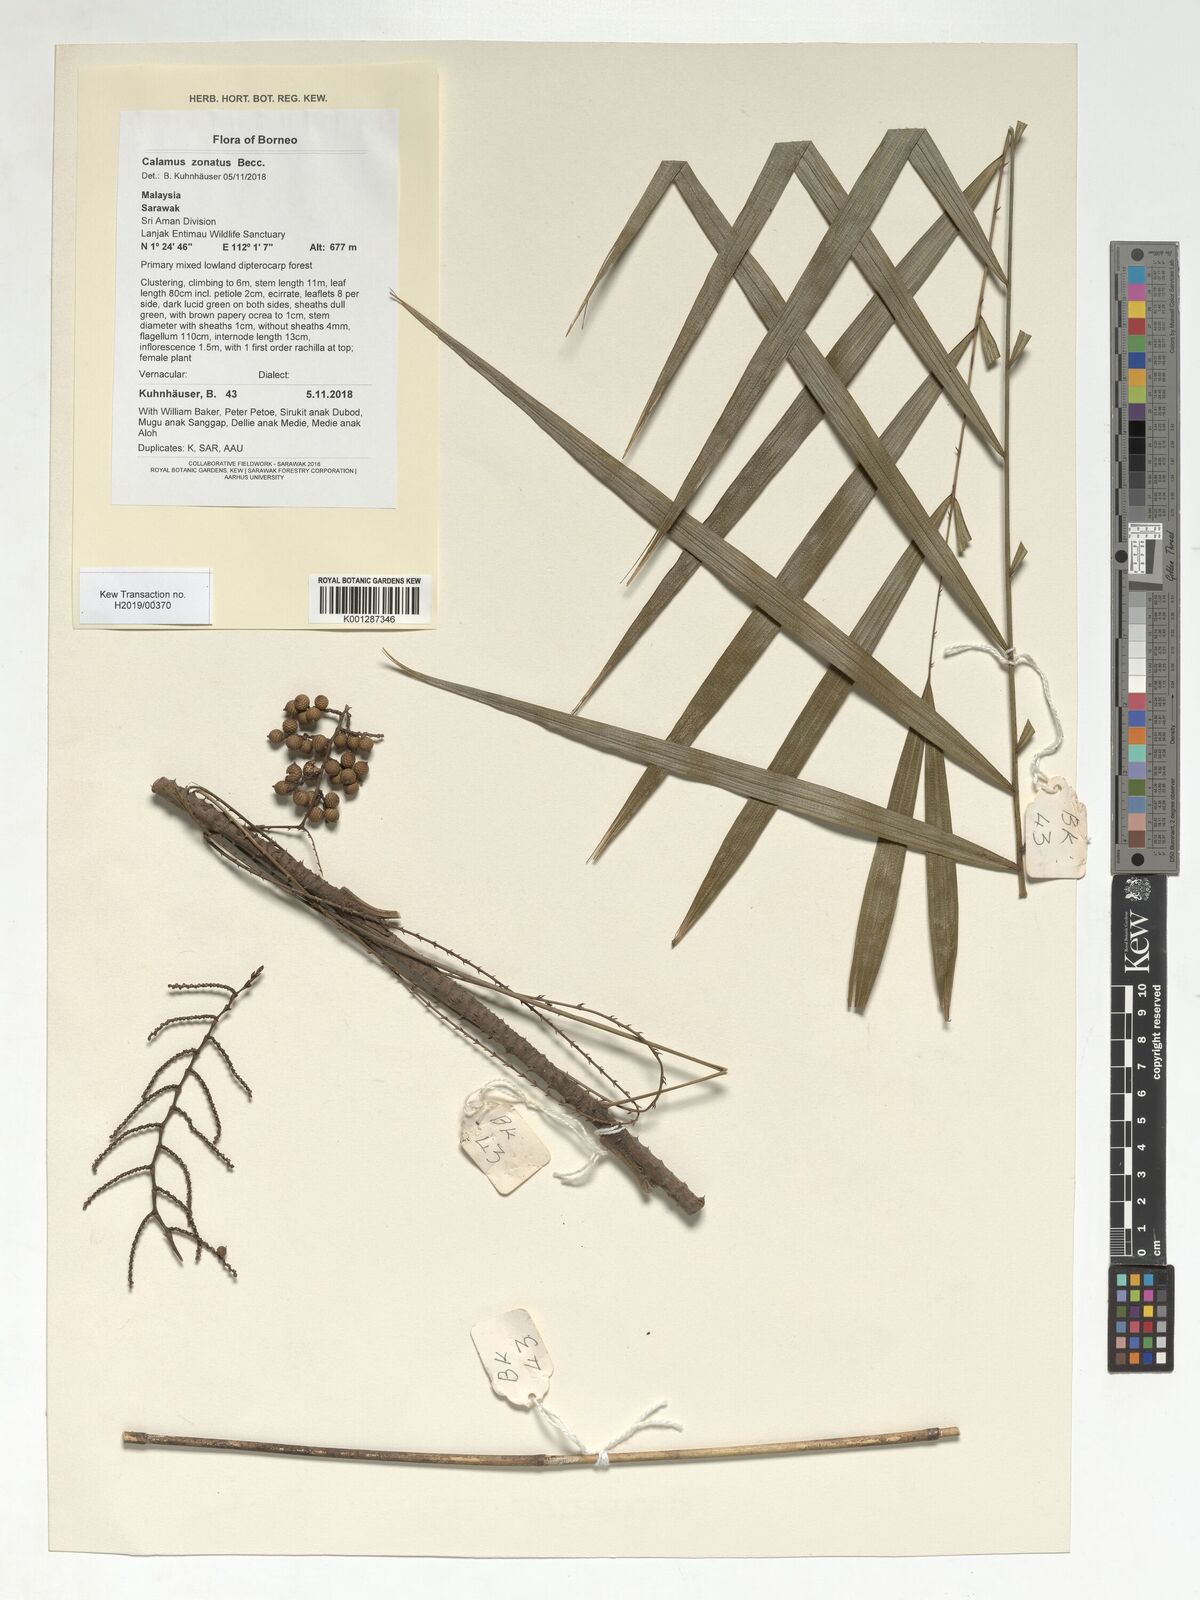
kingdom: Plantae
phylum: Tracheophyta
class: Liliopsida
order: Arecales
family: Arecaceae
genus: Calamus
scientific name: Calamus zonatus
